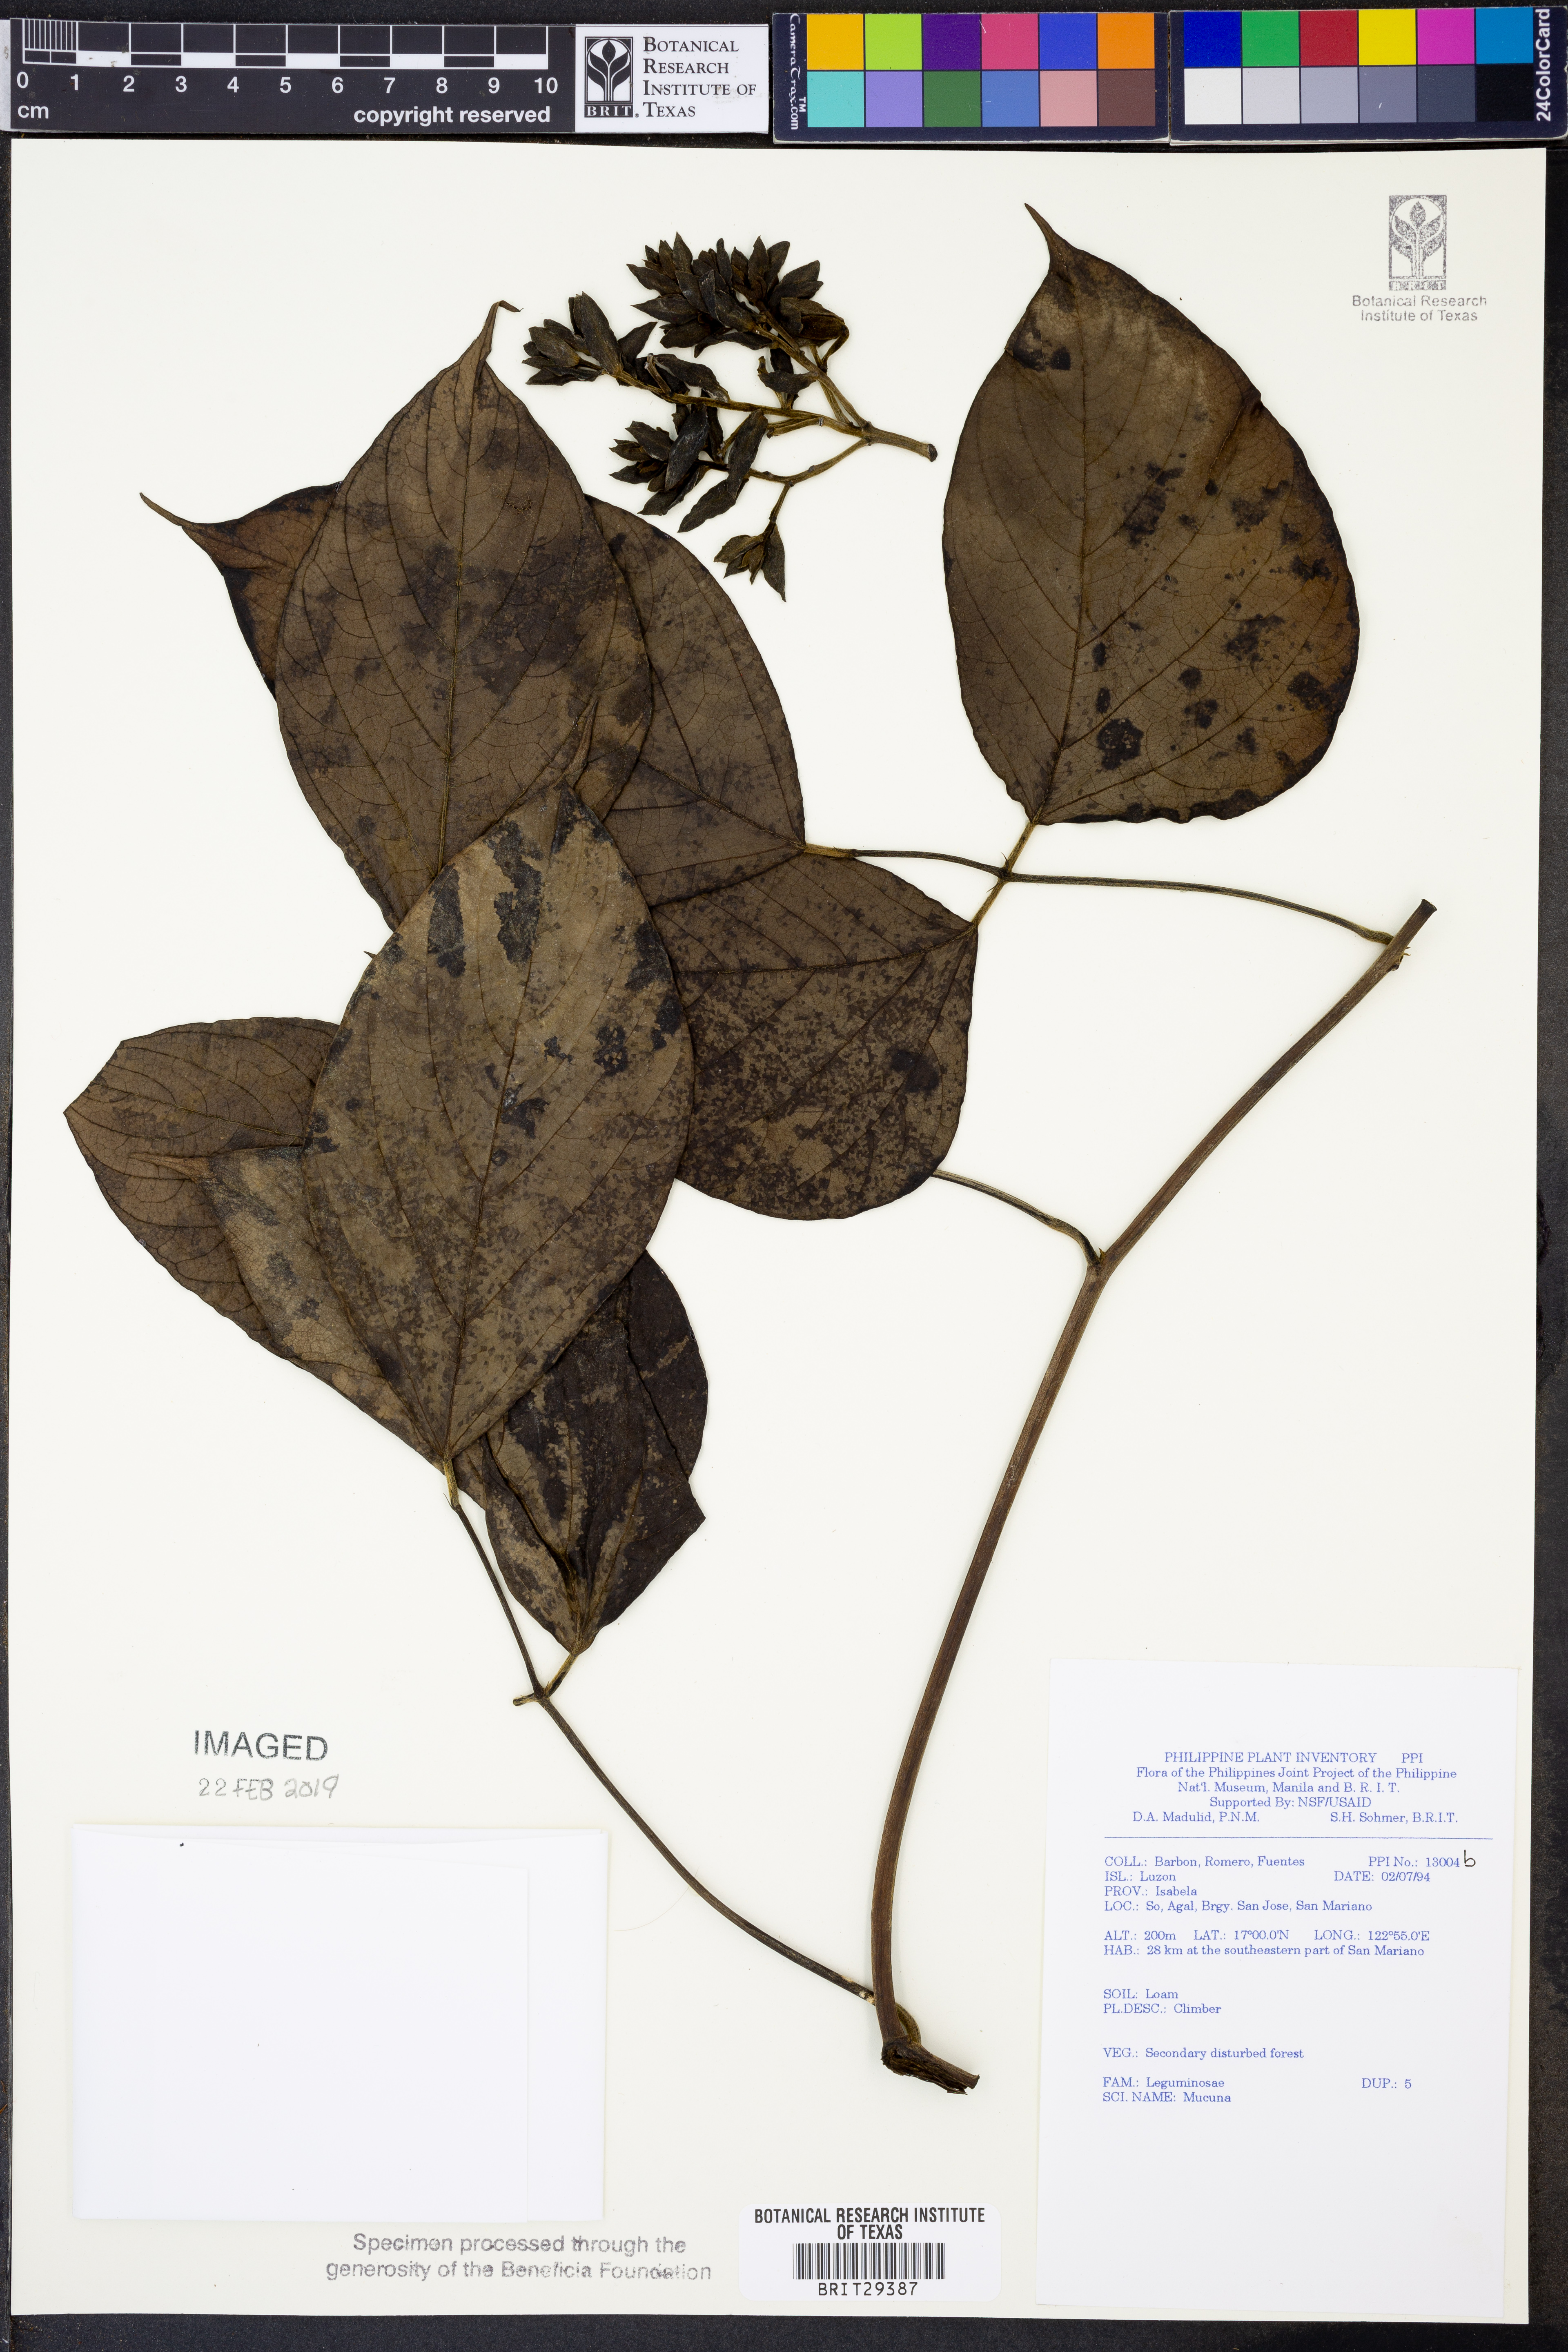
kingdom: Plantae
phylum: Tracheophyta
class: Magnoliopsida
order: Fabales
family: Fabaceae
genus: Mucuna
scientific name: Mucuna
